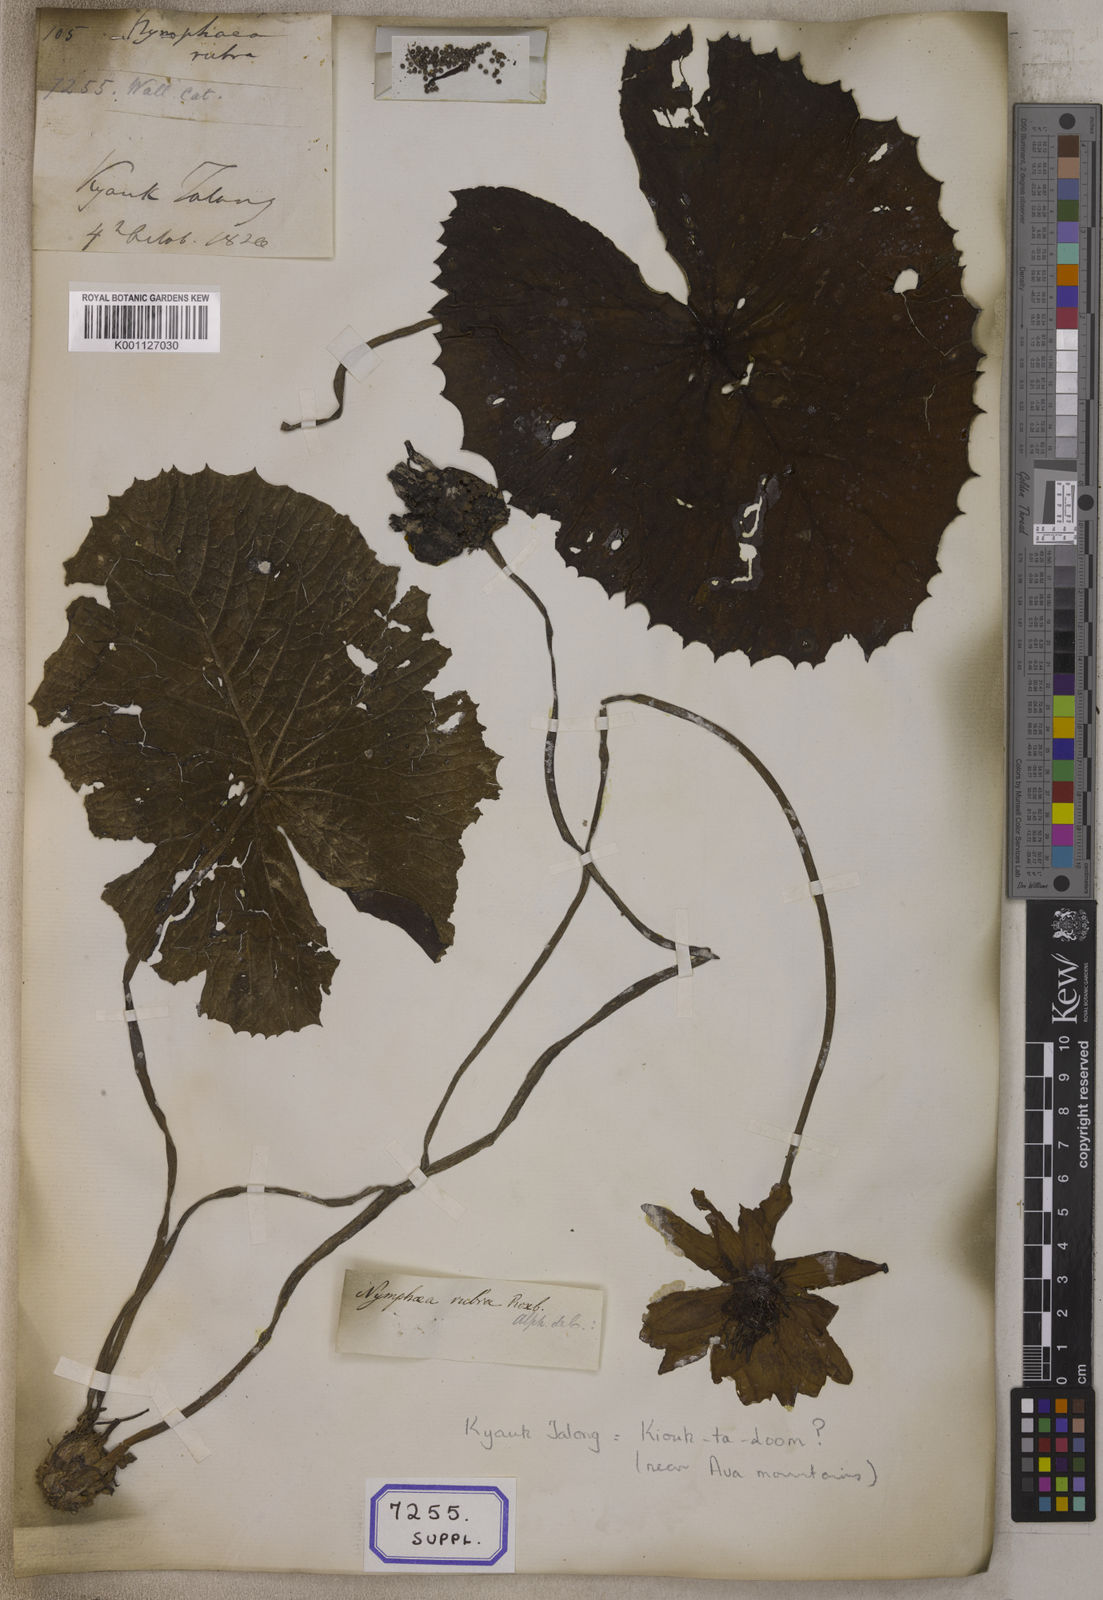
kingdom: Plantae
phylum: Tracheophyta
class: Magnoliopsida
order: Nymphaeales
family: Nymphaeaceae
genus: Nymphaea
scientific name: Nymphaea
